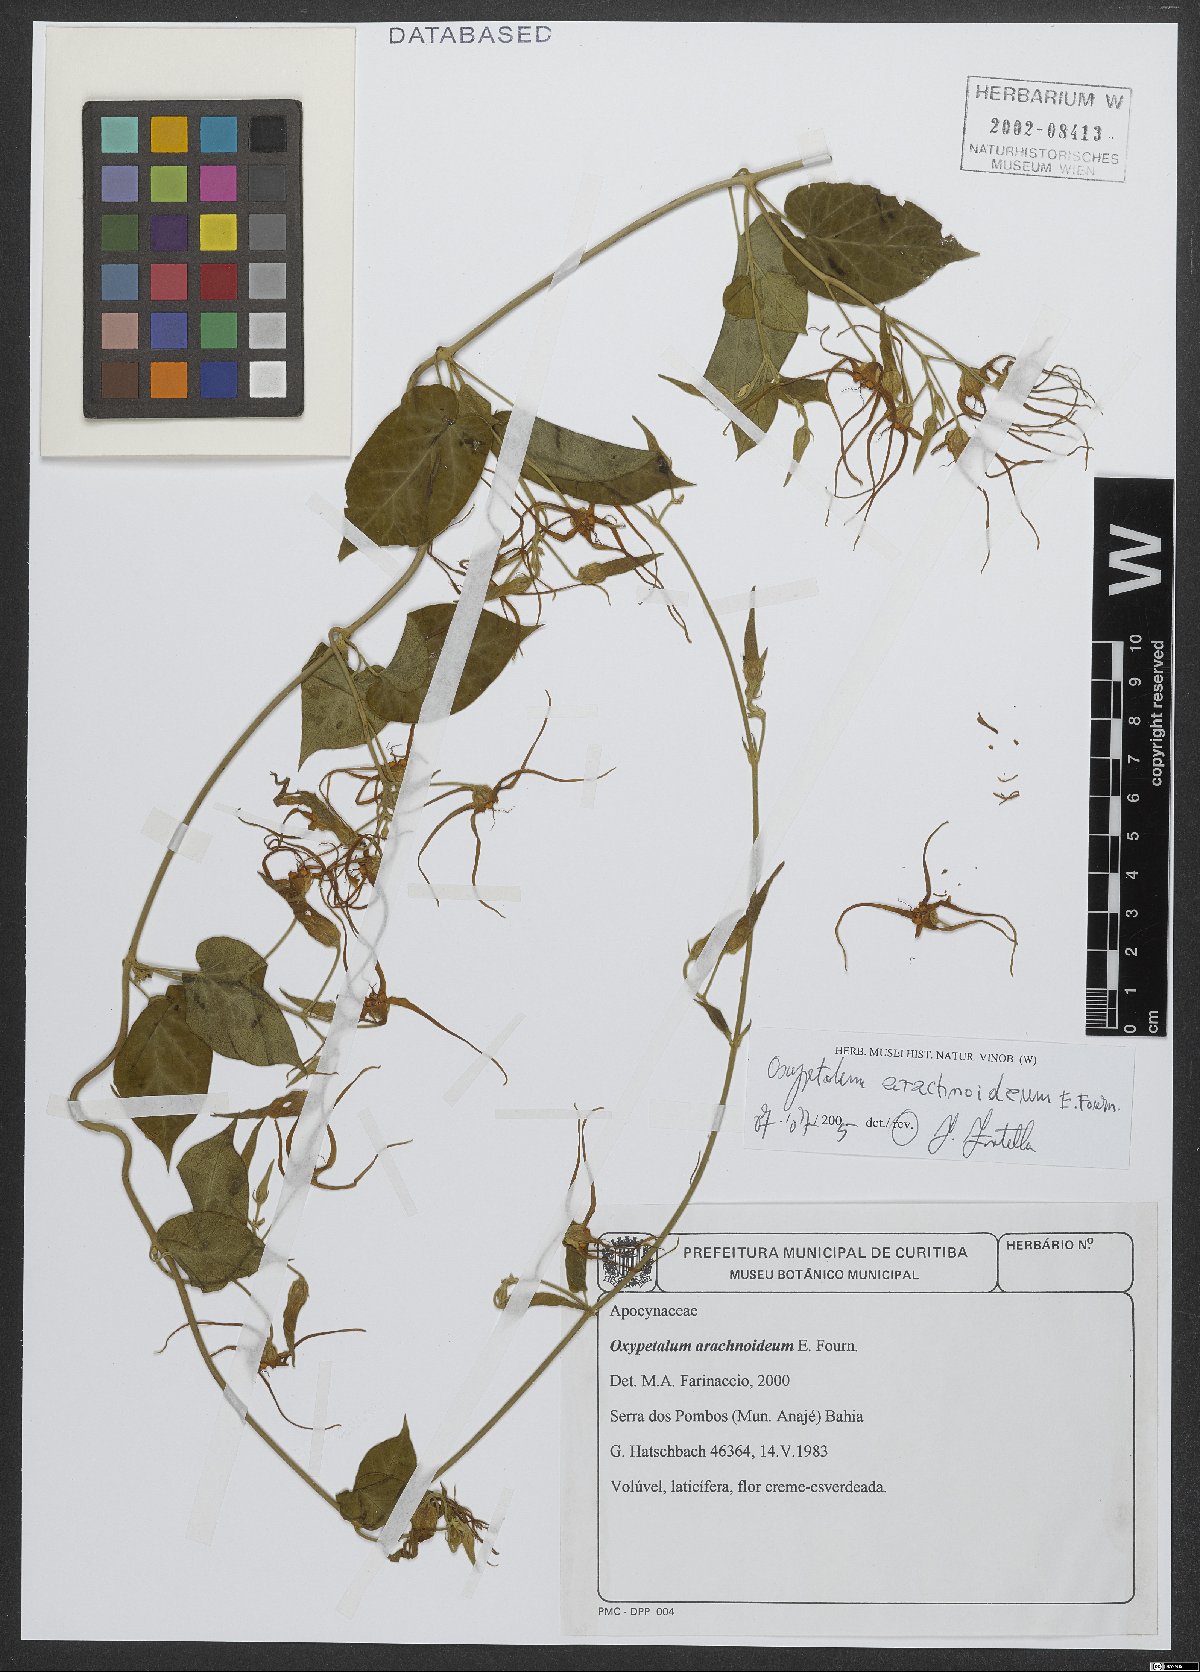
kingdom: Plantae
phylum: Tracheophyta
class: Magnoliopsida
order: Gentianales
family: Apocynaceae
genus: Oxypetalum
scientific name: Oxypetalum arachnoideum
